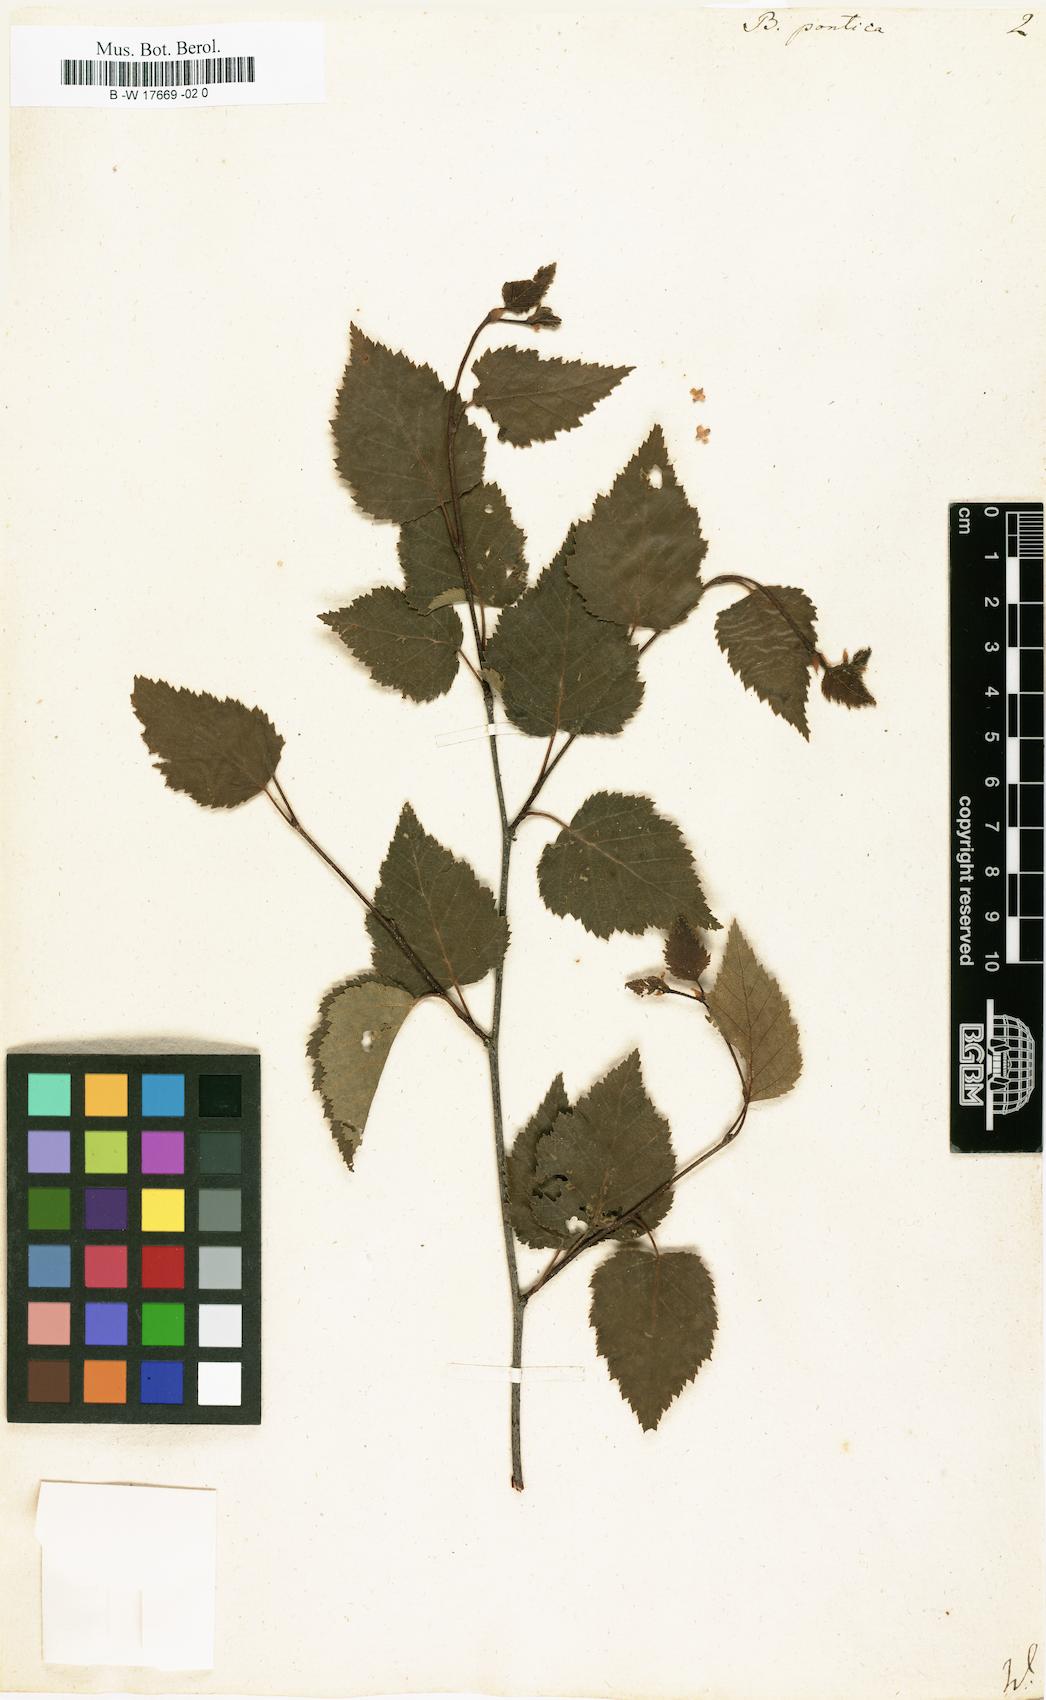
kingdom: Plantae
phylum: Tracheophyta
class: Magnoliopsida
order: Fagales
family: Betulaceae
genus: Betula
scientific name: Betula pontica
